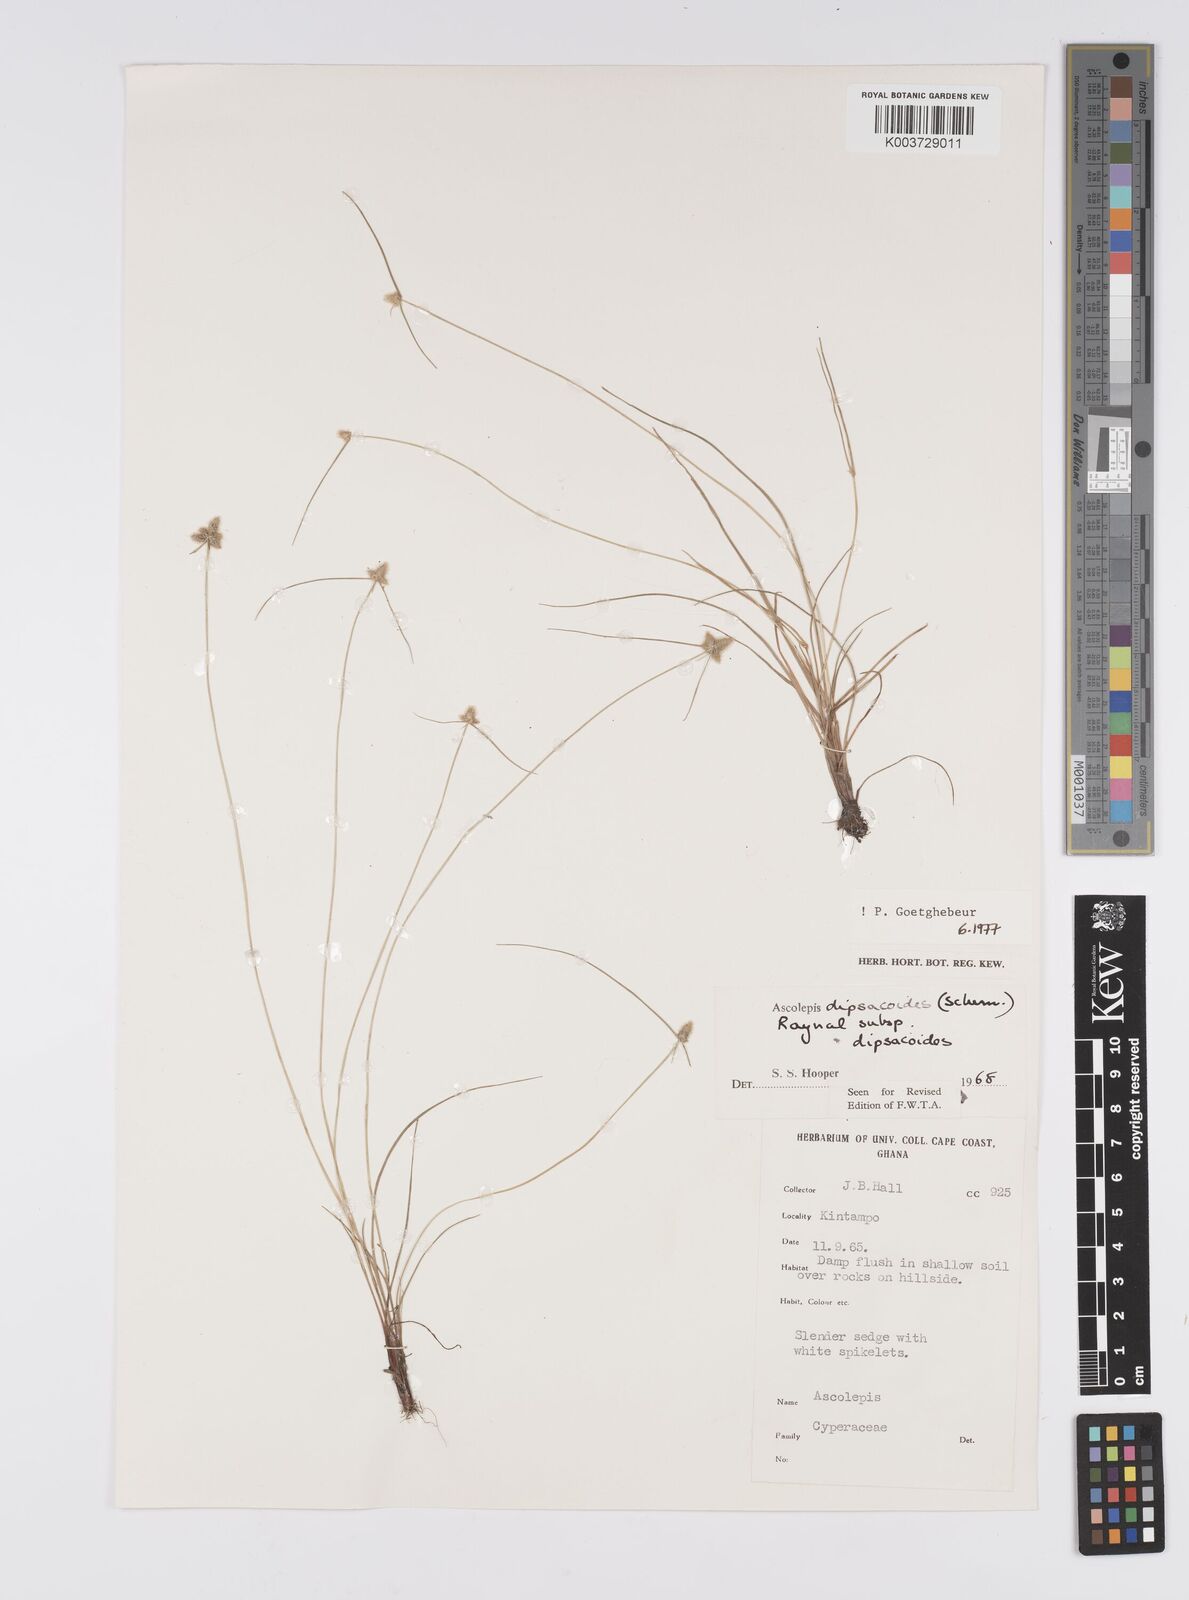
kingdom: Plantae
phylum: Tracheophyta
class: Liliopsida
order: Poales
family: Cyperaceae
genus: Cyperus
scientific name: Cyperus dipsacoides
